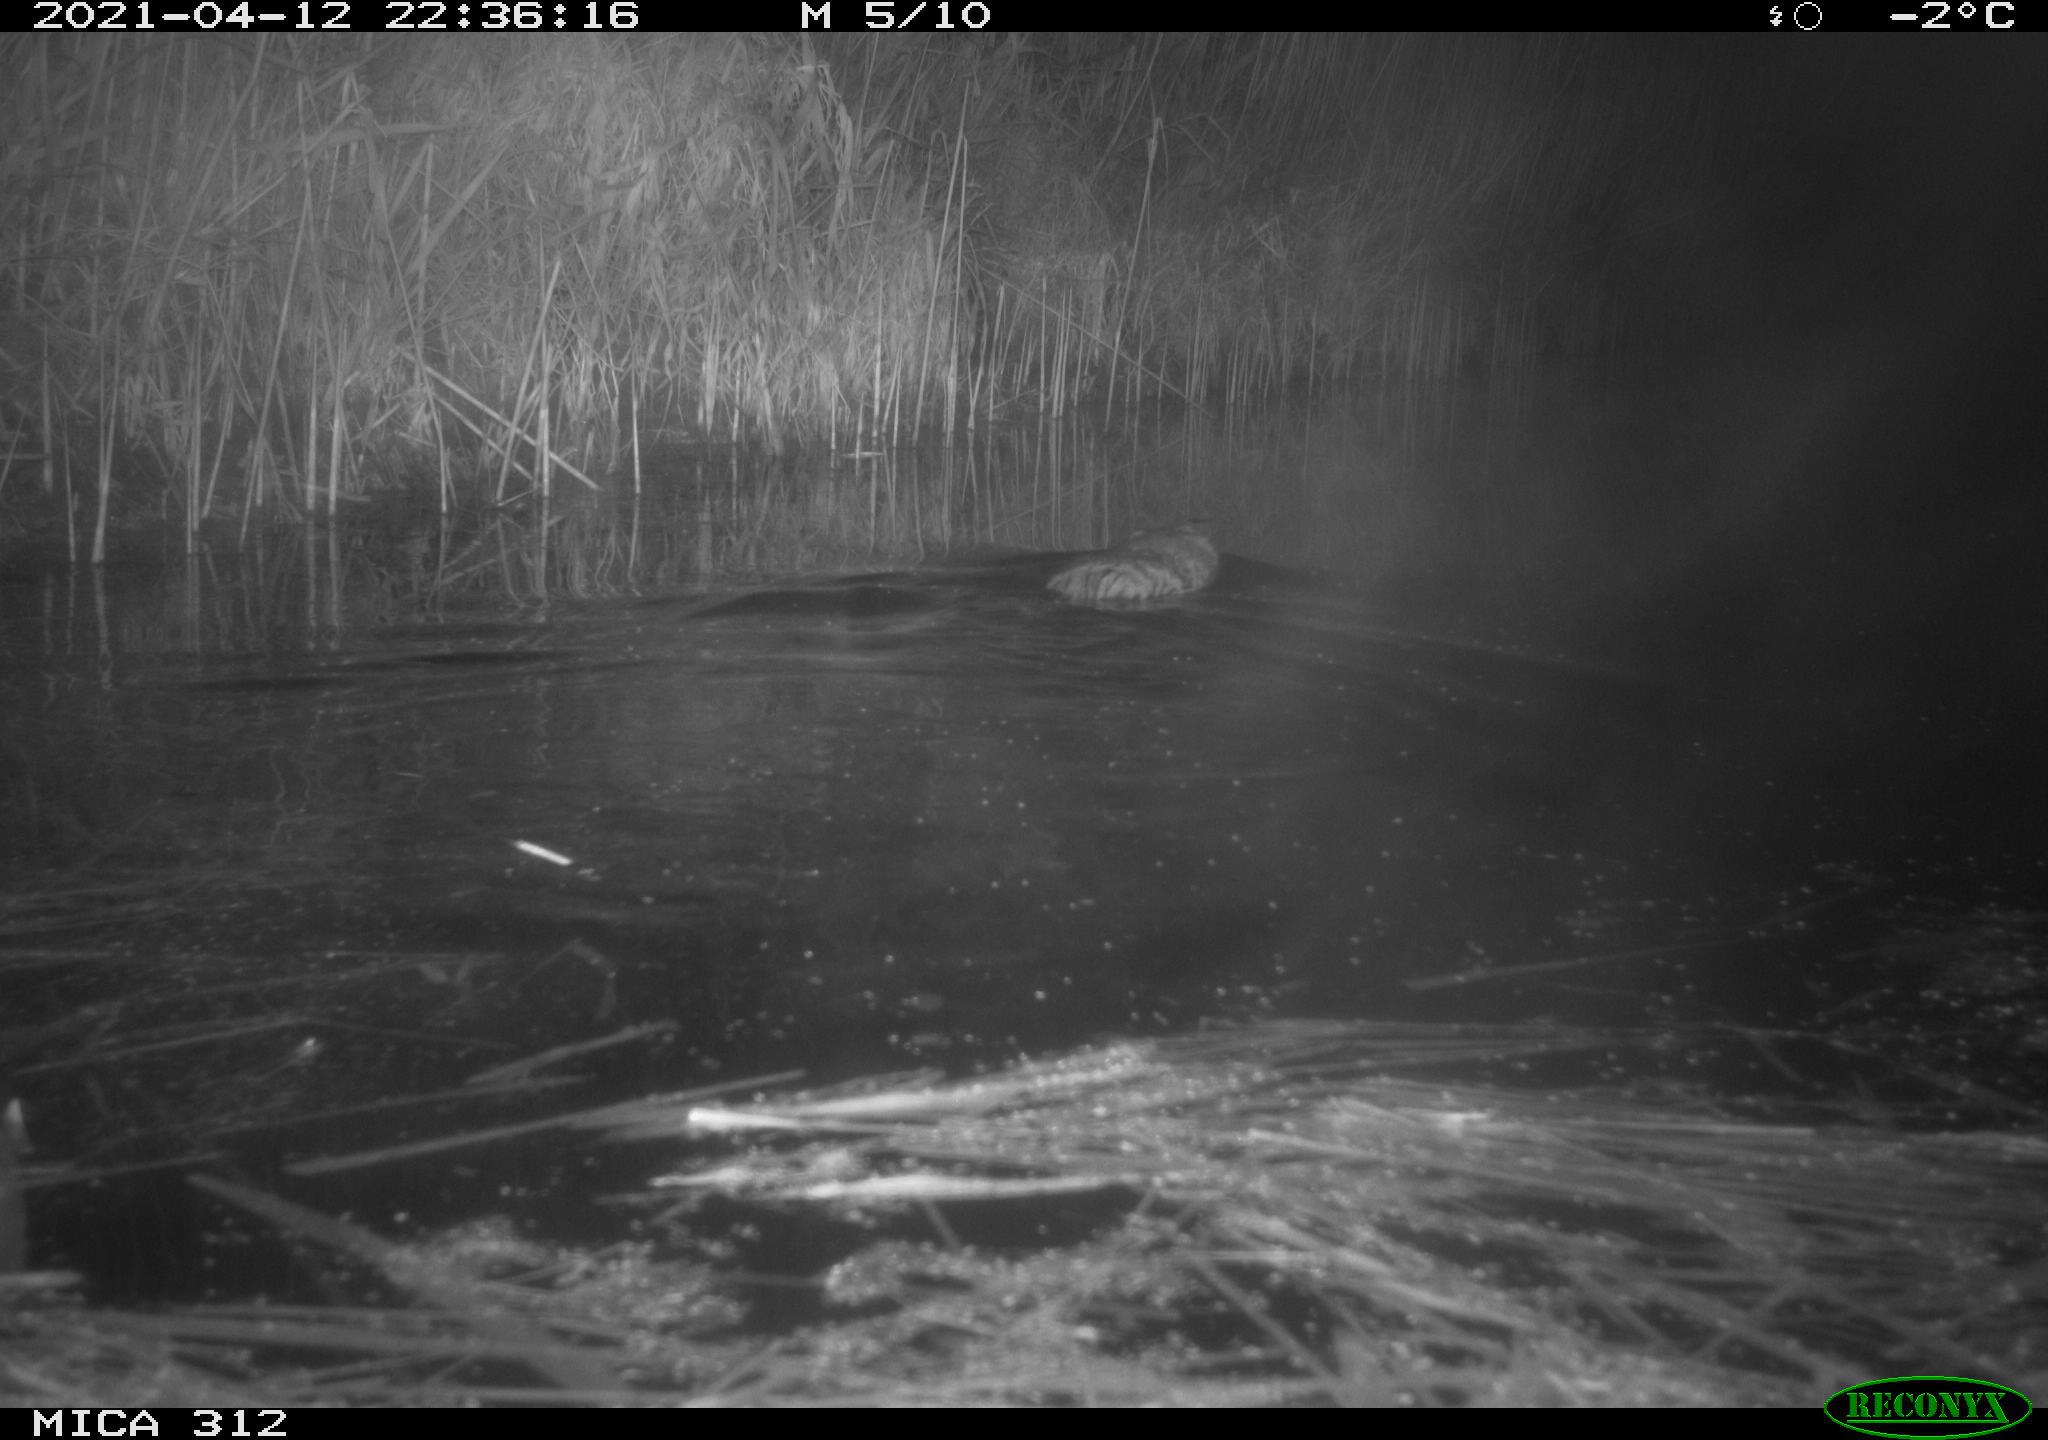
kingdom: Animalia
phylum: Chordata
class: Mammalia
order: Rodentia
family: Cricetidae
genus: Ondatra
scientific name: Ondatra zibethicus
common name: Muskrat
